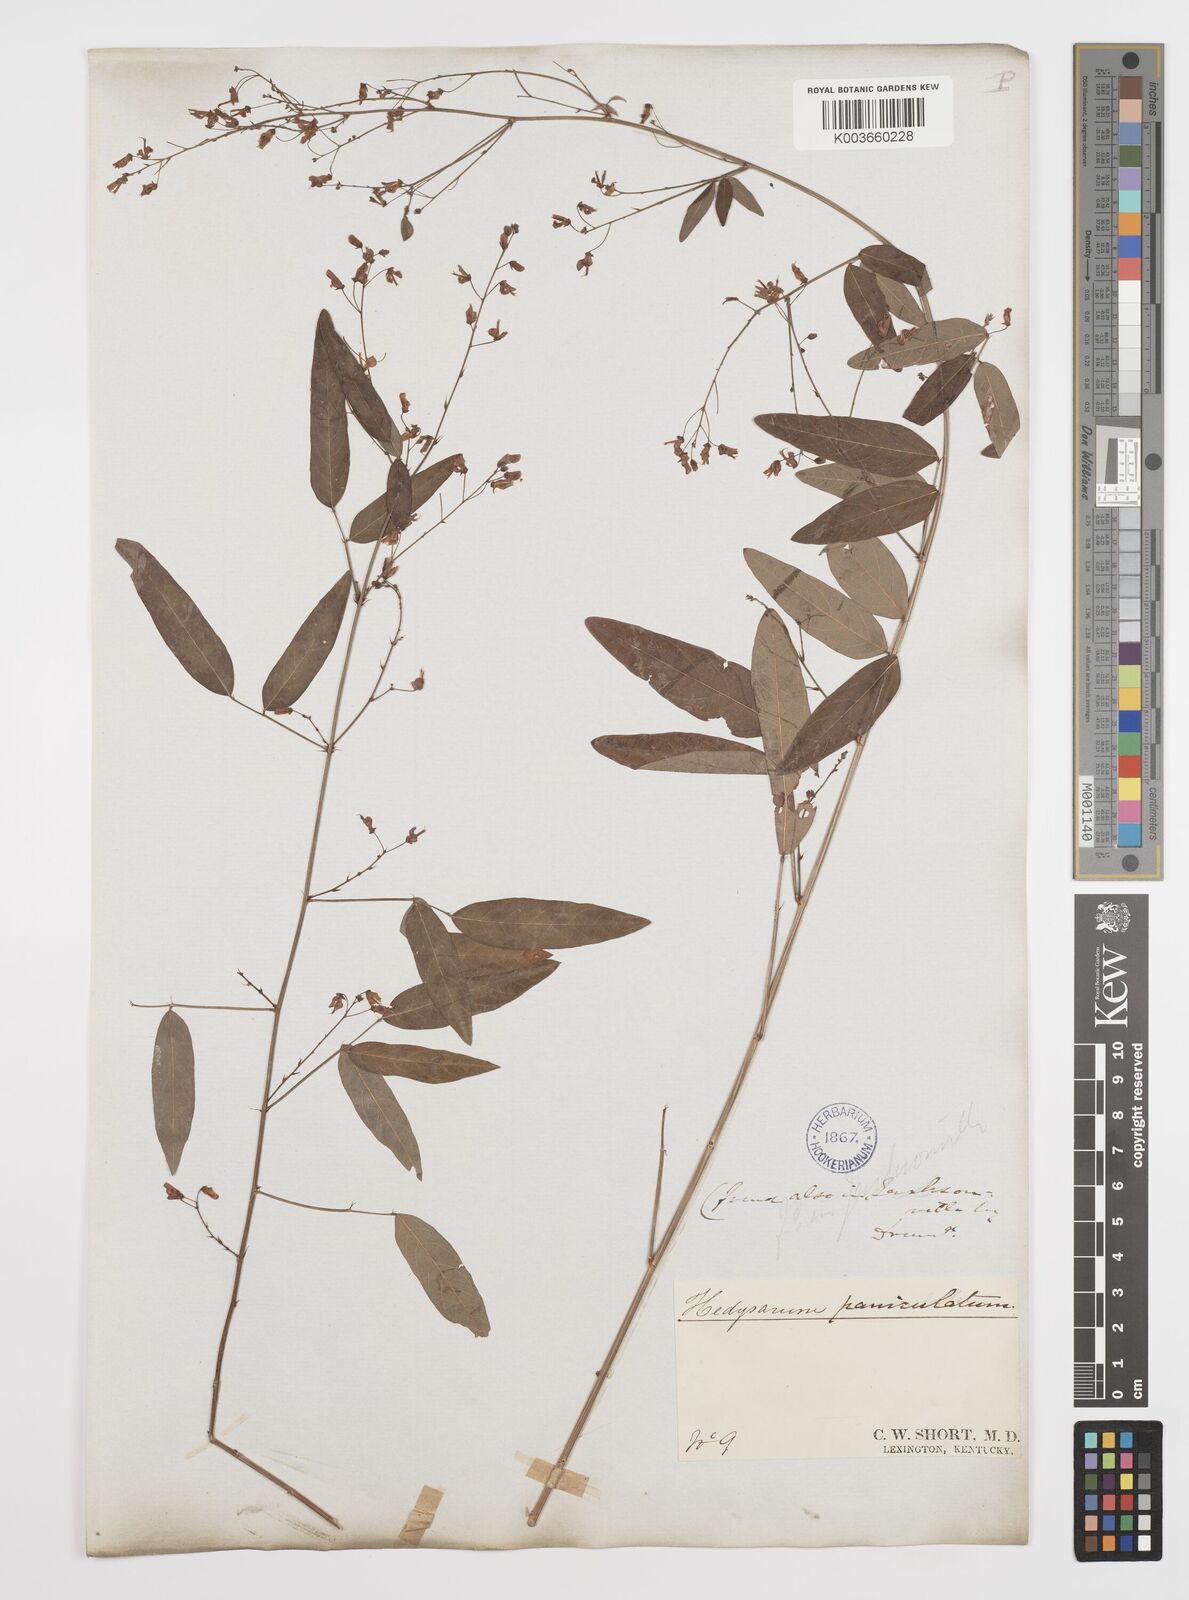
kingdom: Plantae
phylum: Tracheophyta
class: Magnoliopsida
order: Fabales
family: Fabaceae
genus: Desmodium
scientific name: Desmodium paniculatum
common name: Panicled tick-clover
